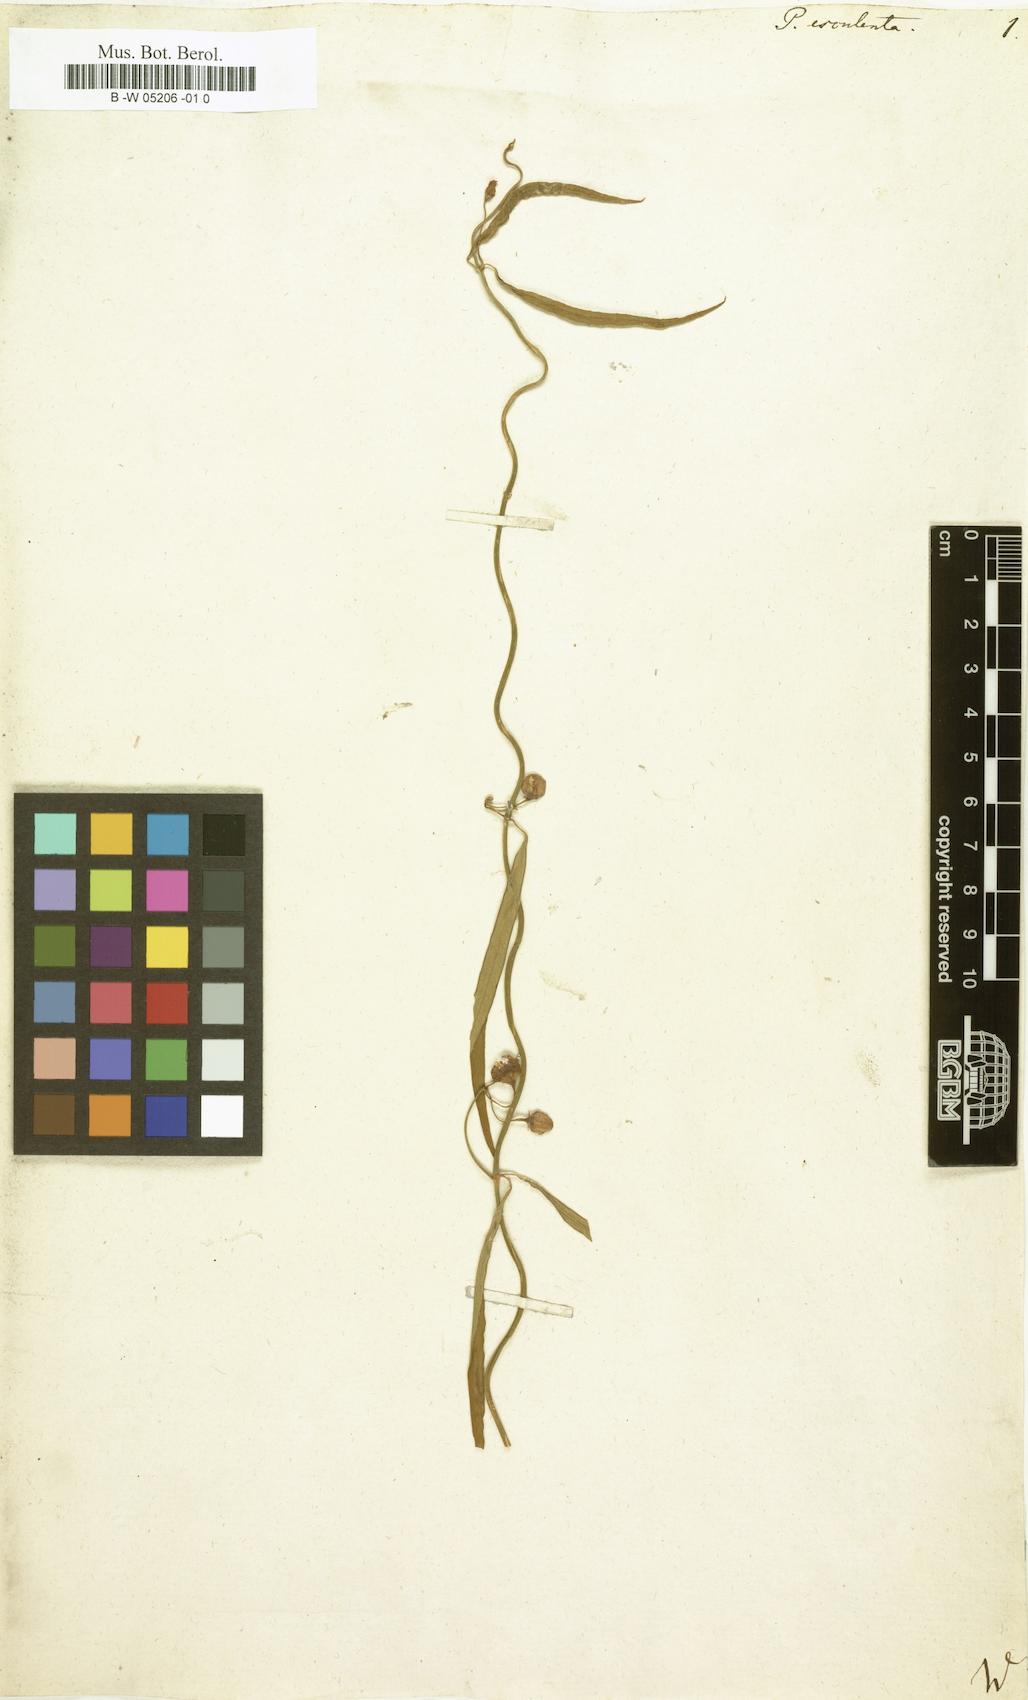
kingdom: Plantae
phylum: Tracheophyta
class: Magnoliopsida
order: Gentianales
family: Apocynaceae
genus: Oxystelma
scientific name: Oxystelma wallichii
